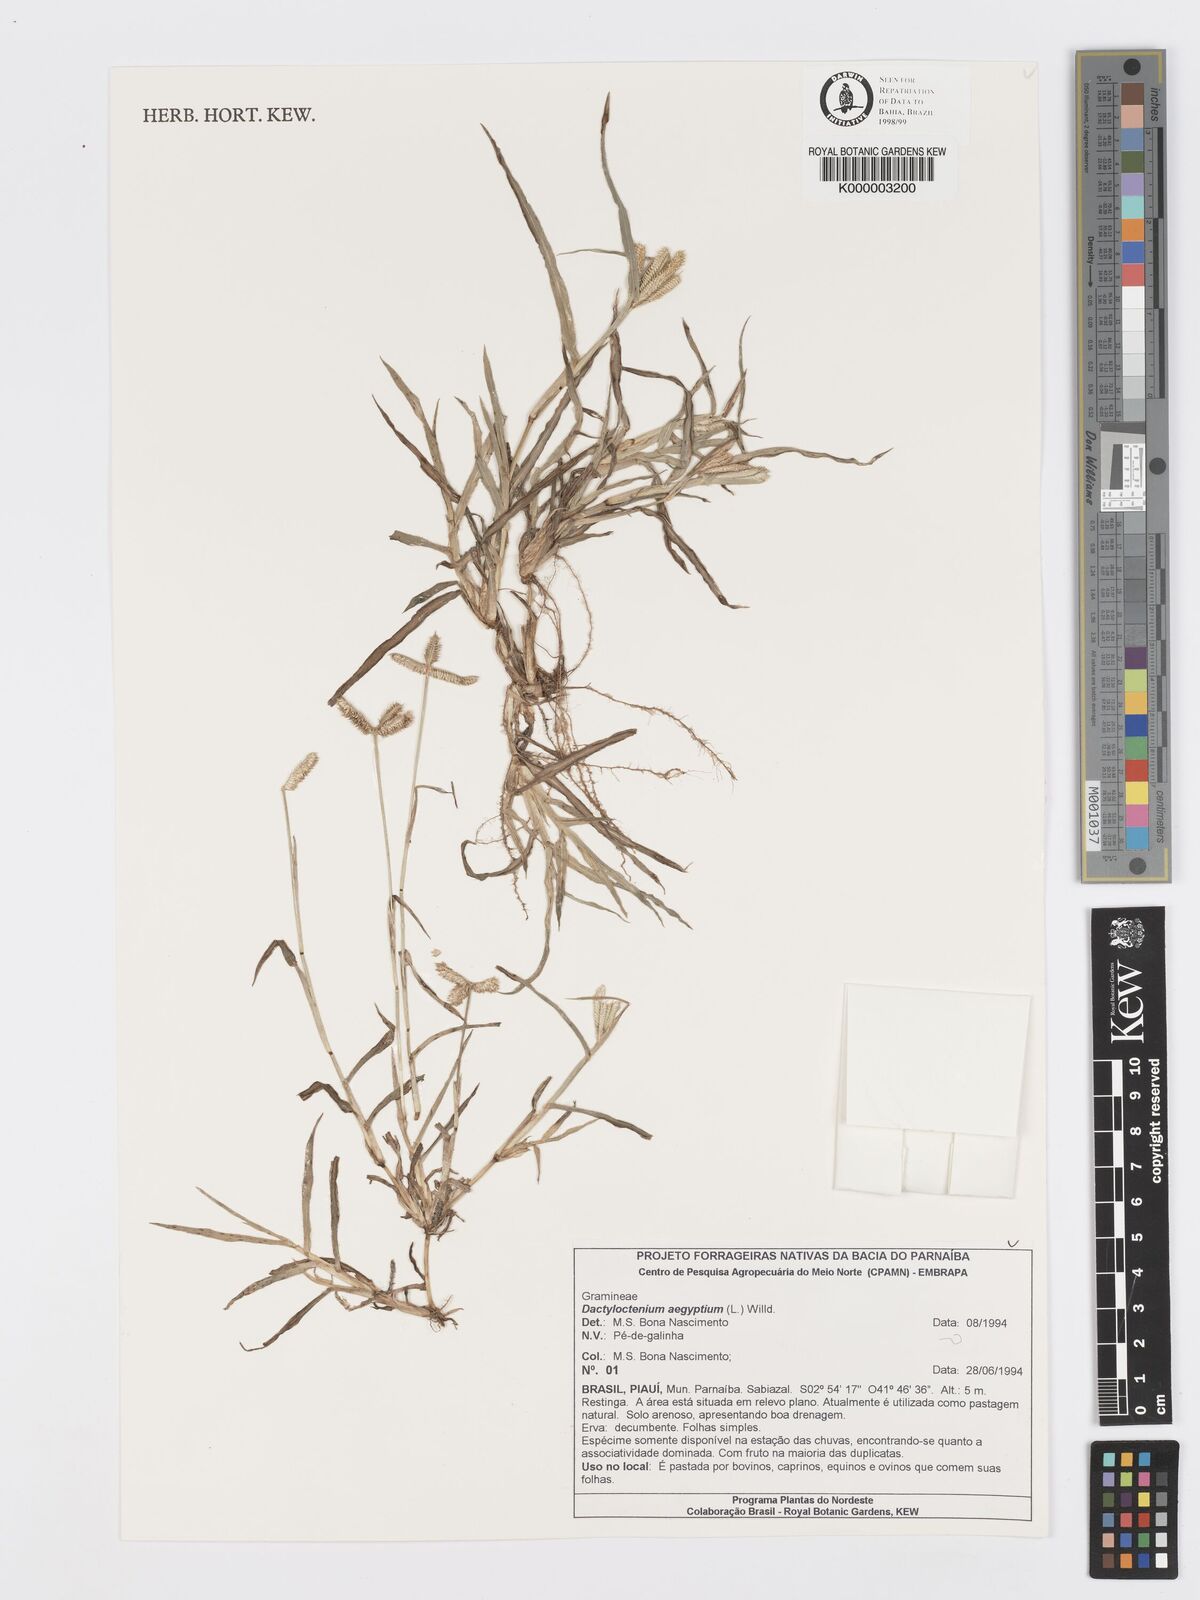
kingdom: Plantae
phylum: Tracheophyta
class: Liliopsida
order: Poales
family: Poaceae
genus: Dactyloctenium
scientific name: Dactyloctenium aegyptium
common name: Egyptian grass
